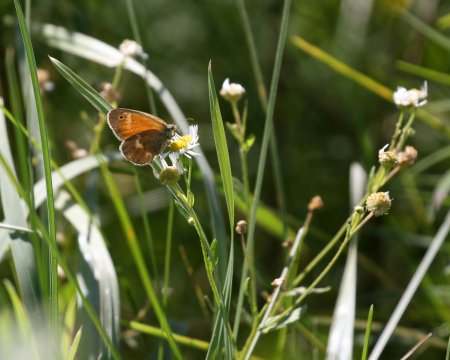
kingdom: Animalia
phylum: Arthropoda
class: Insecta
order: Lepidoptera
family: Nymphalidae
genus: Coenonympha
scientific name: Coenonympha tullia
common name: Large Heath
